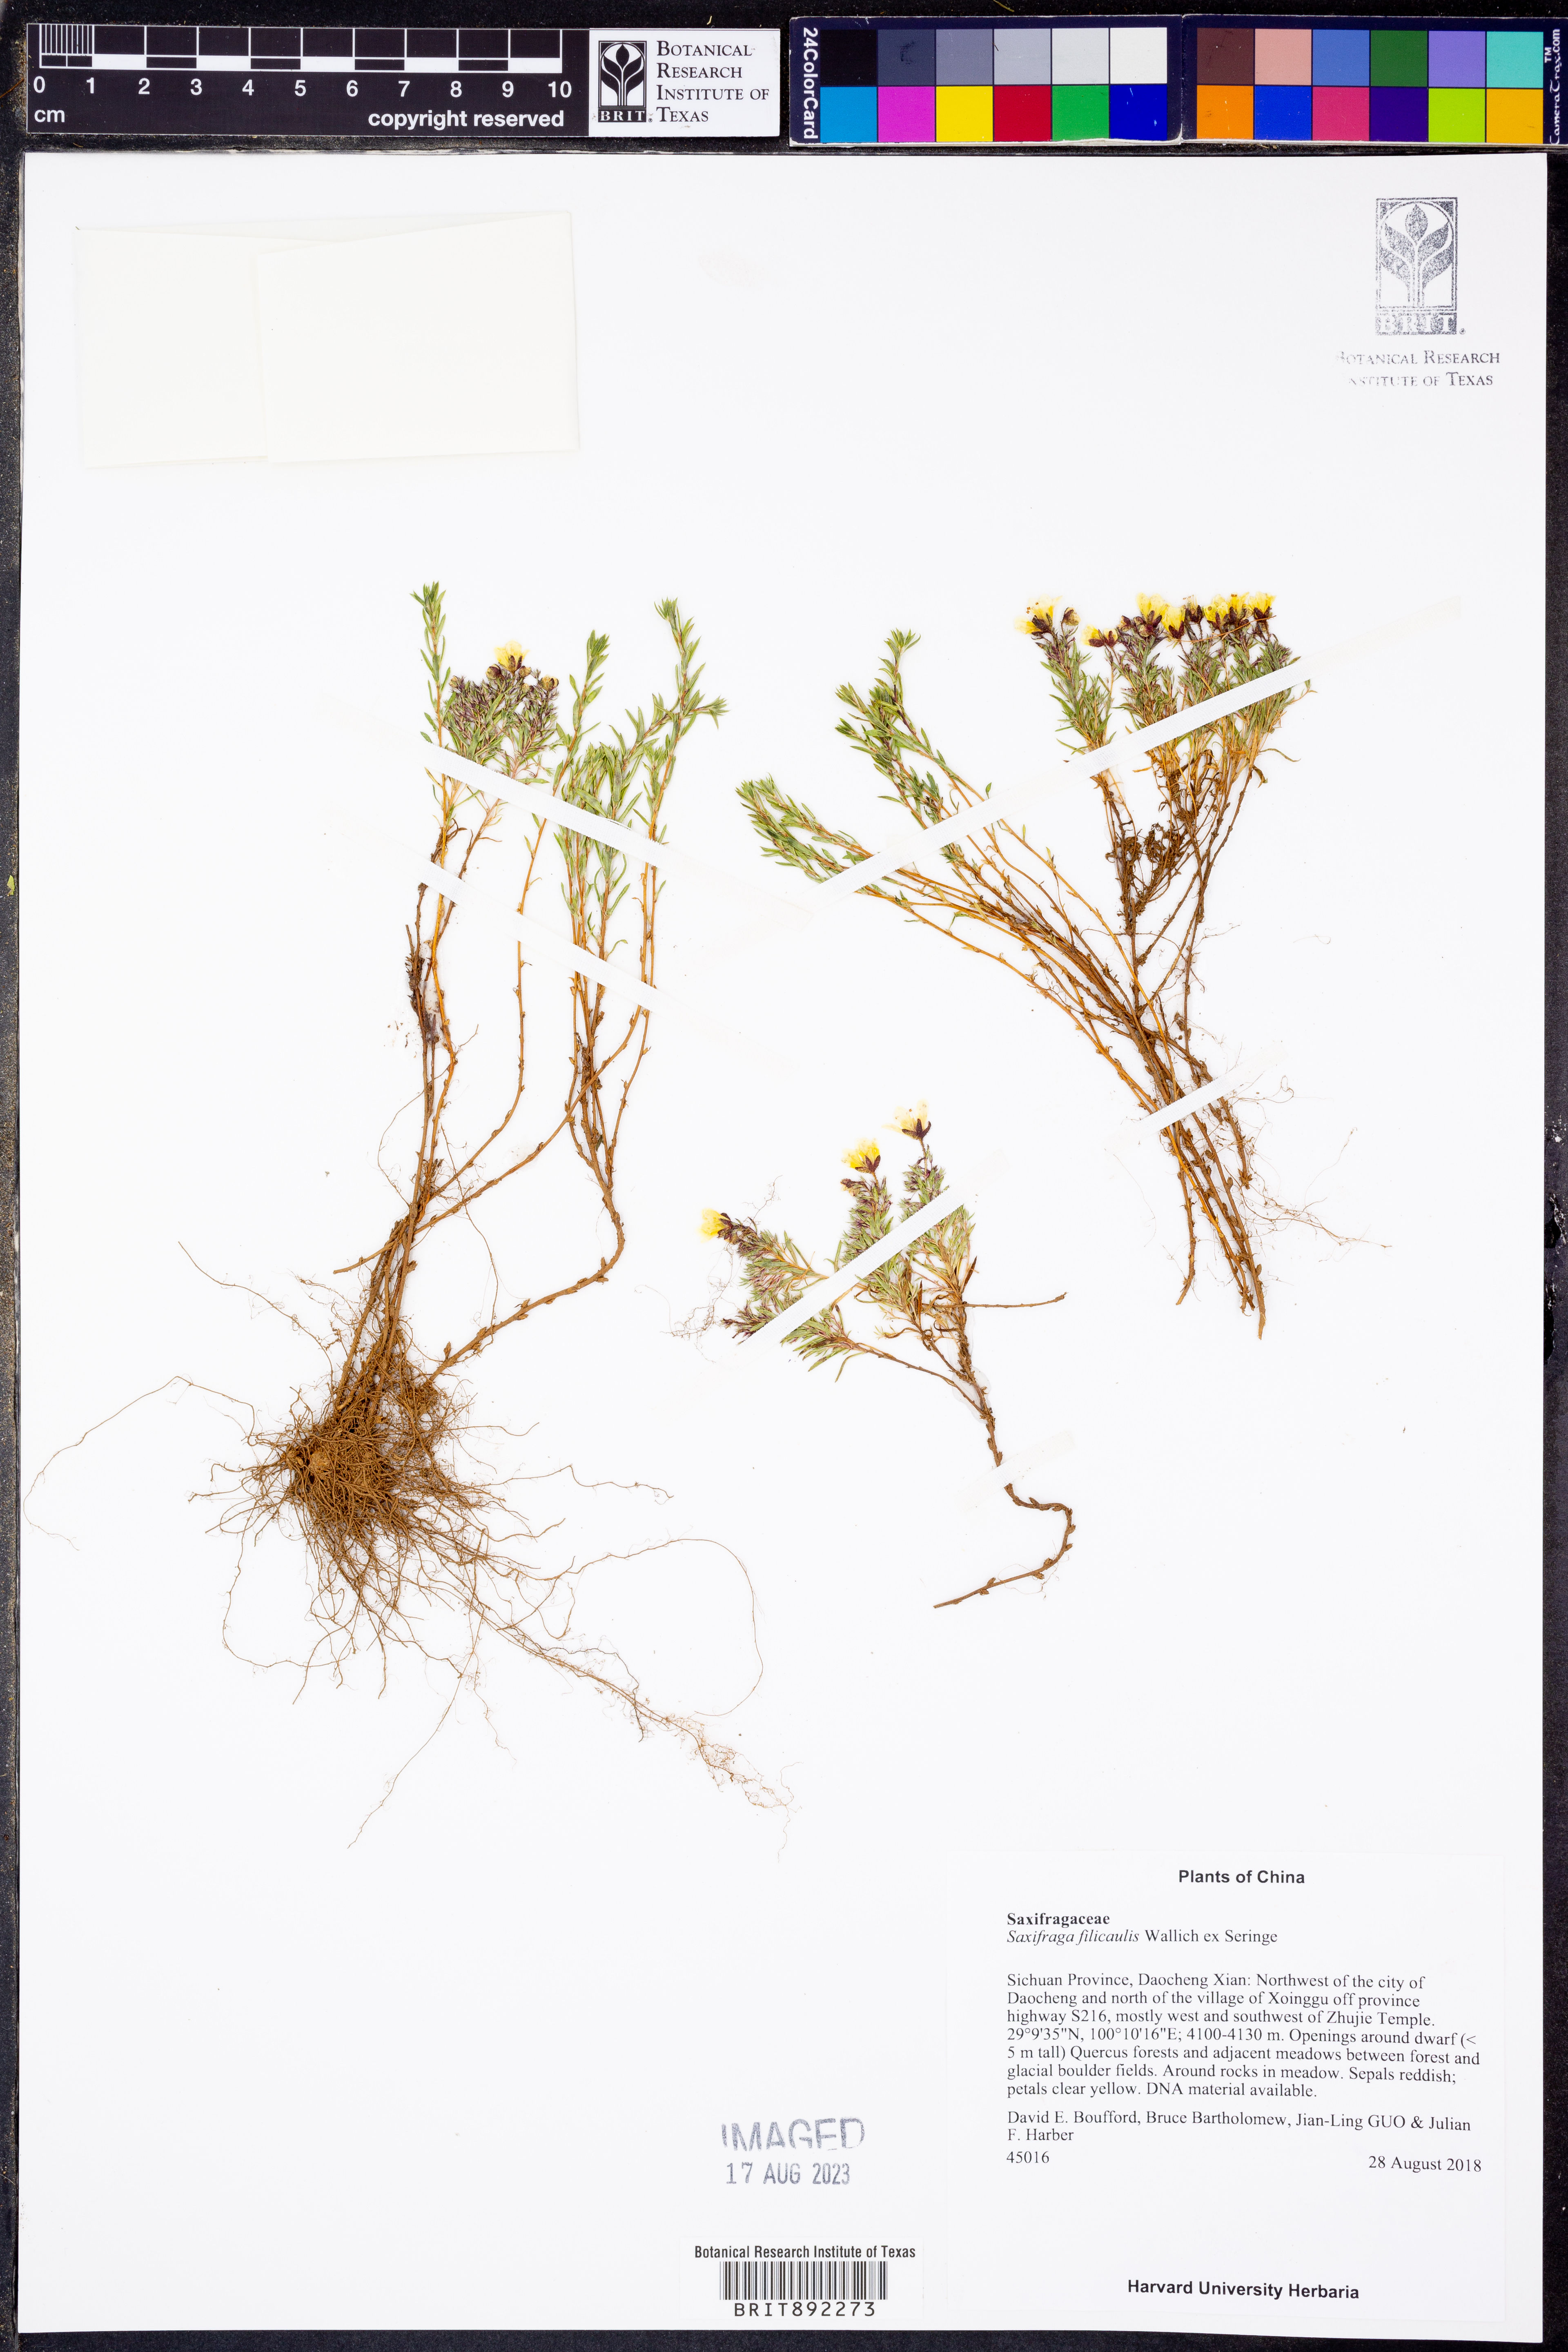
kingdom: Plantae
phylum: Tracheophyta
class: Magnoliopsida
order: Saxifragales
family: Saxifragaceae
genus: Saxifraga
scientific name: Saxifraga filicaulis
